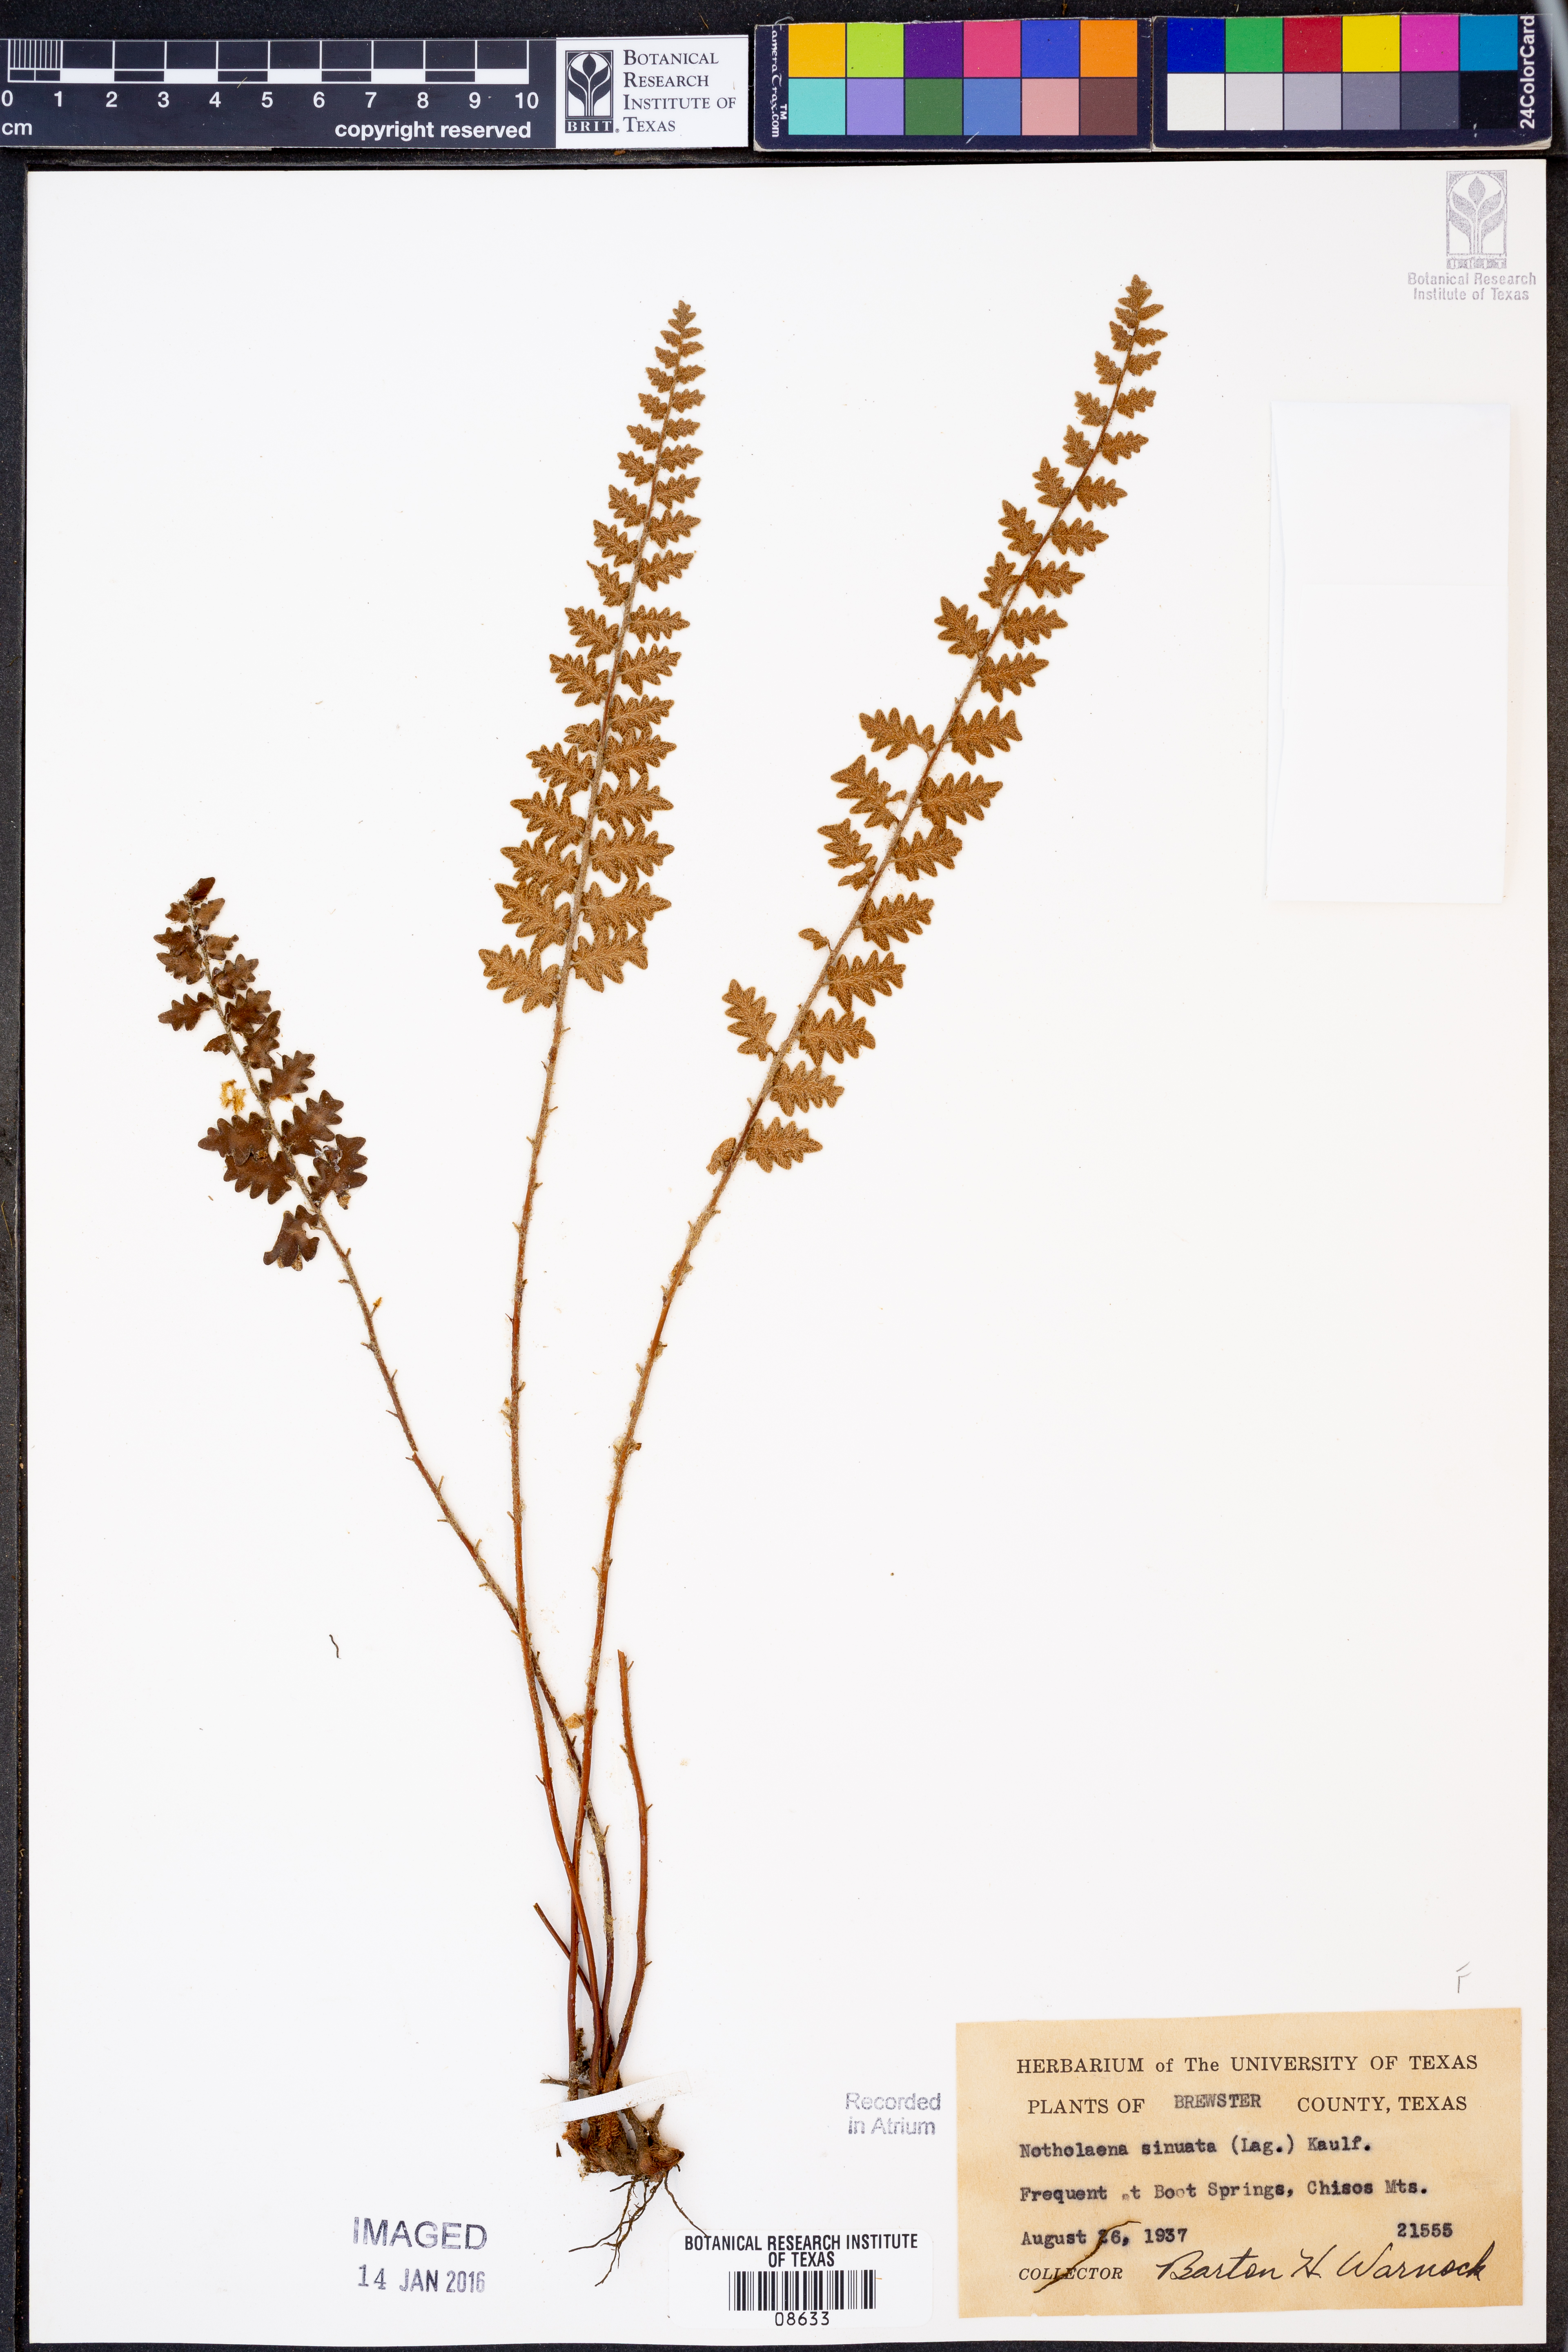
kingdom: Plantae
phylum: Tracheophyta
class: Polypodiopsida
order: Polypodiales
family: Pteridaceae
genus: Astrolepis
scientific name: Astrolepis sinuata
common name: Wavy scaly cloakfern
